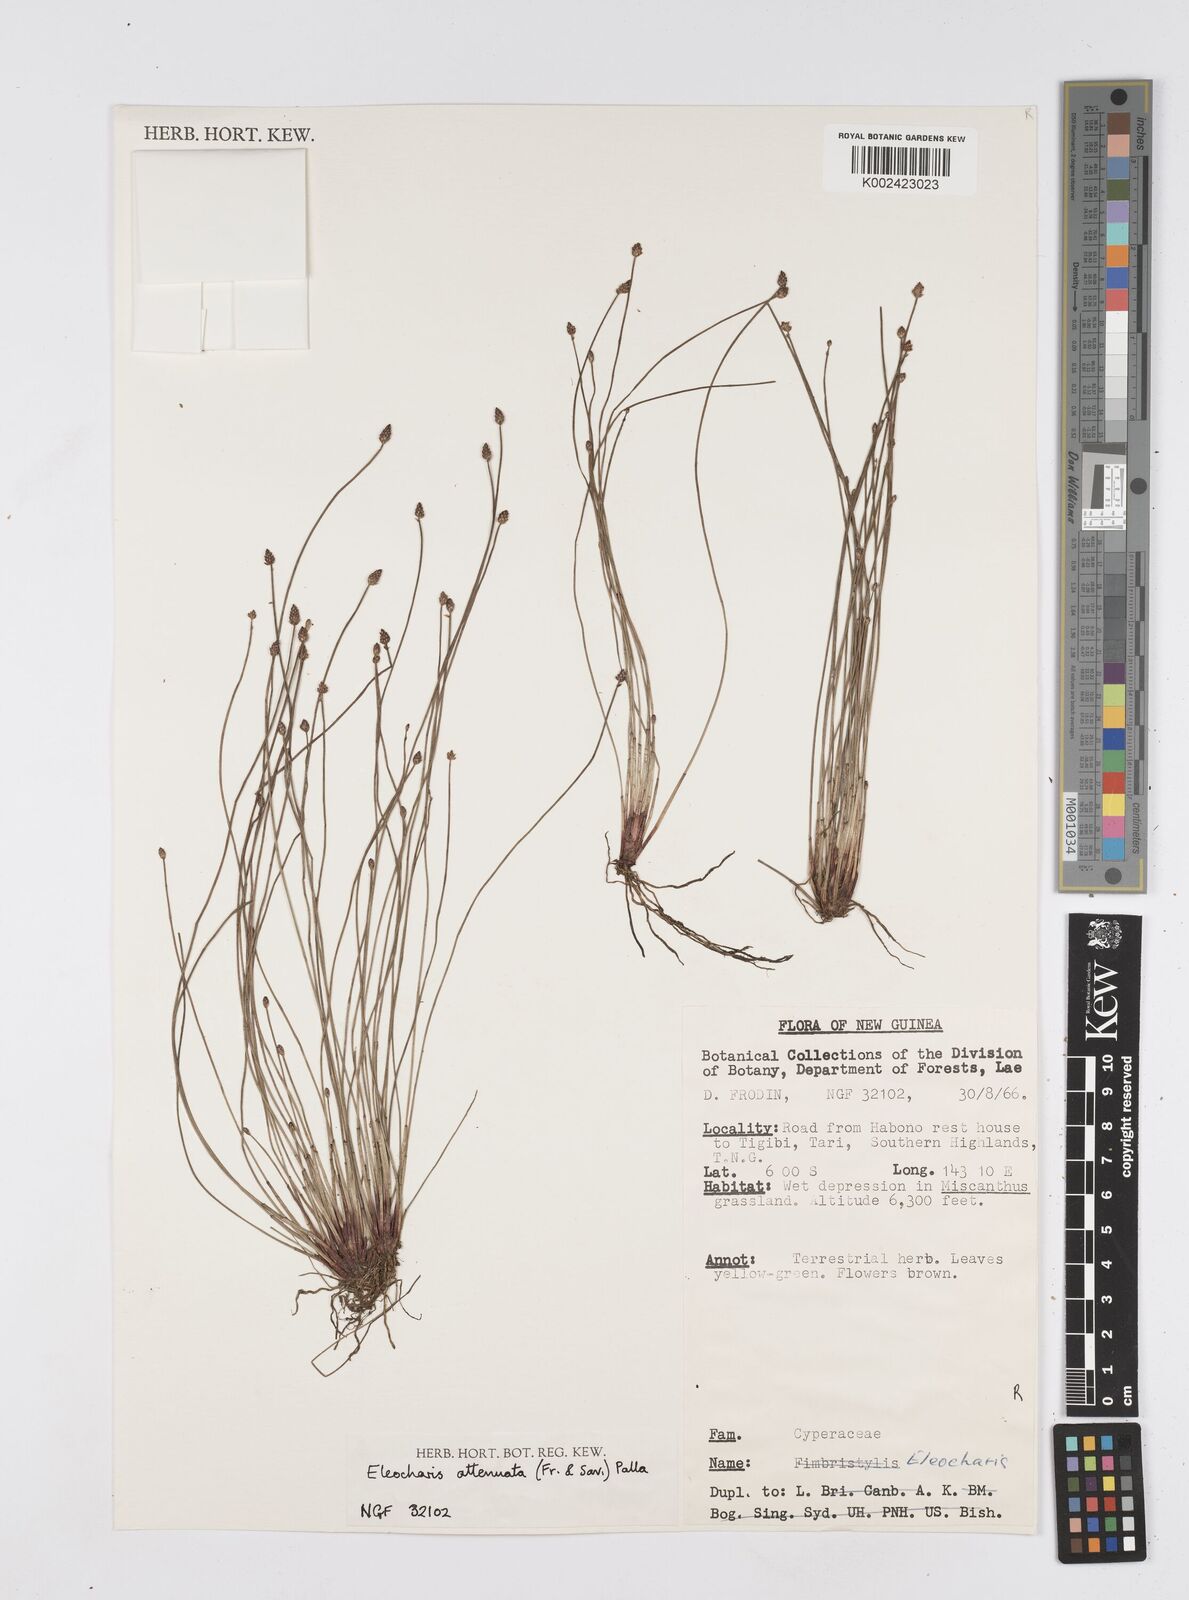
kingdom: Plantae
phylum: Tracheophyta
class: Liliopsida
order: Poales
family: Cyperaceae
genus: Eleocharis
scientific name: Eleocharis attenuata
